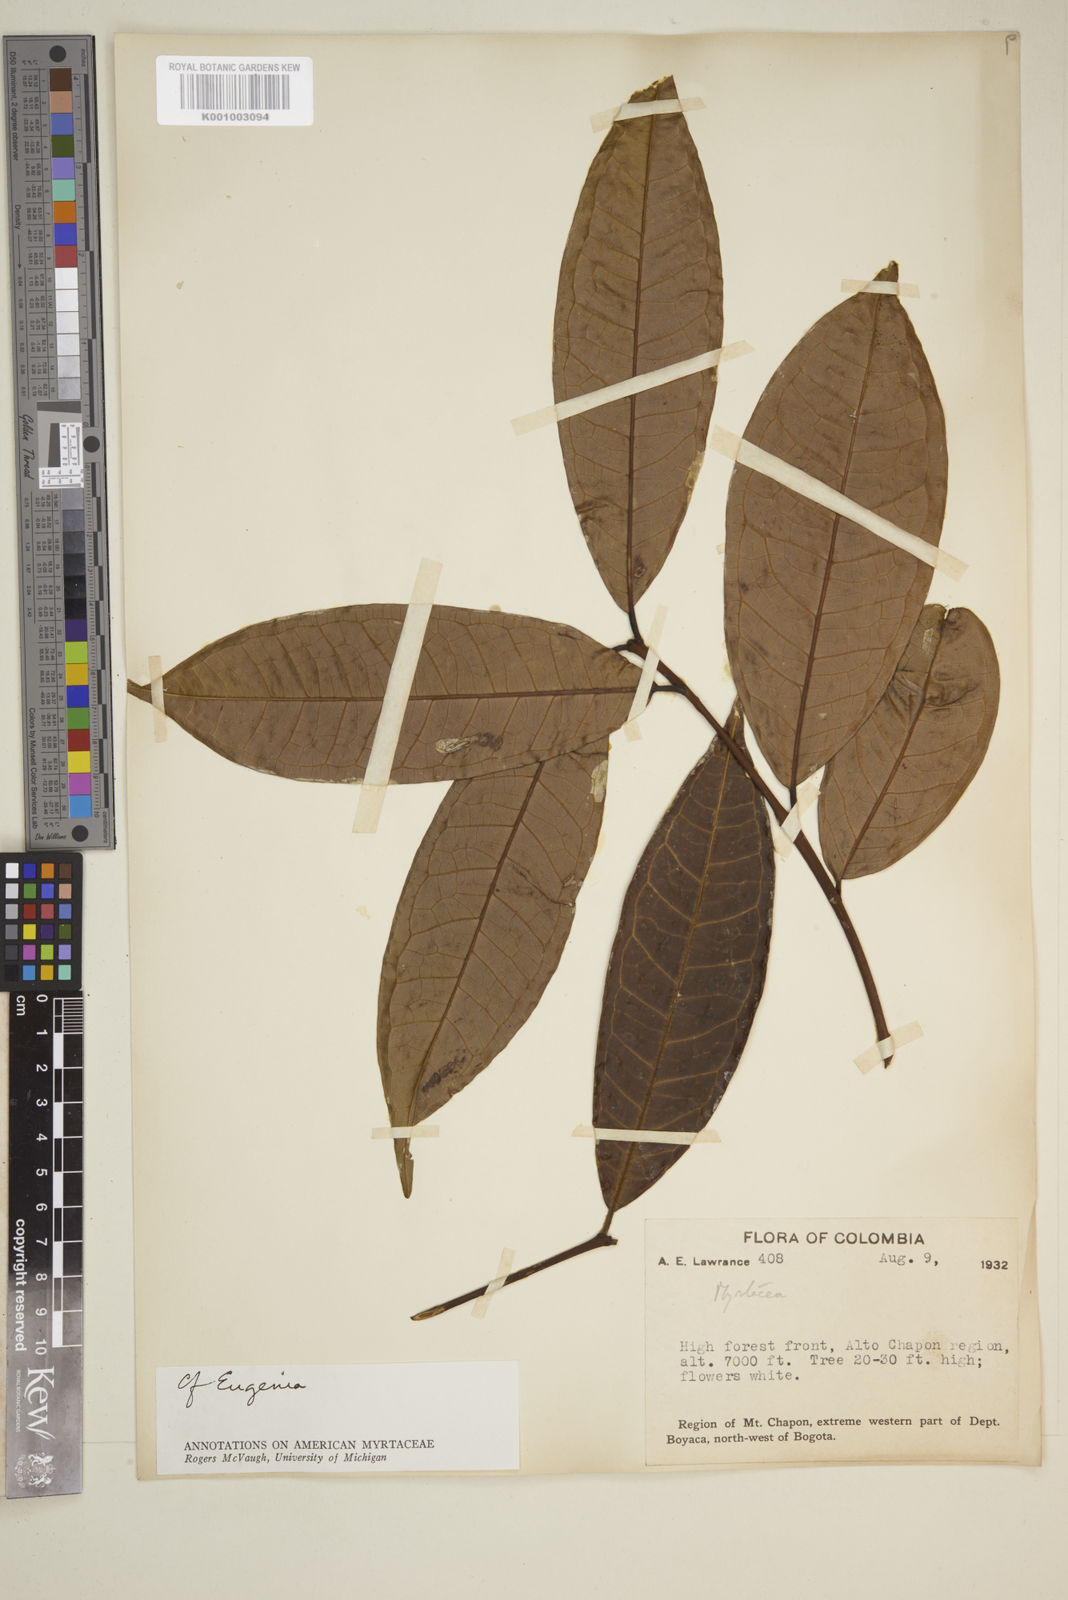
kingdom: Plantae
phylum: Tracheophyta
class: Magnoliopsida
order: Myrtales
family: Myrtaceae
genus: Eugenia
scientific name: Eugenia
